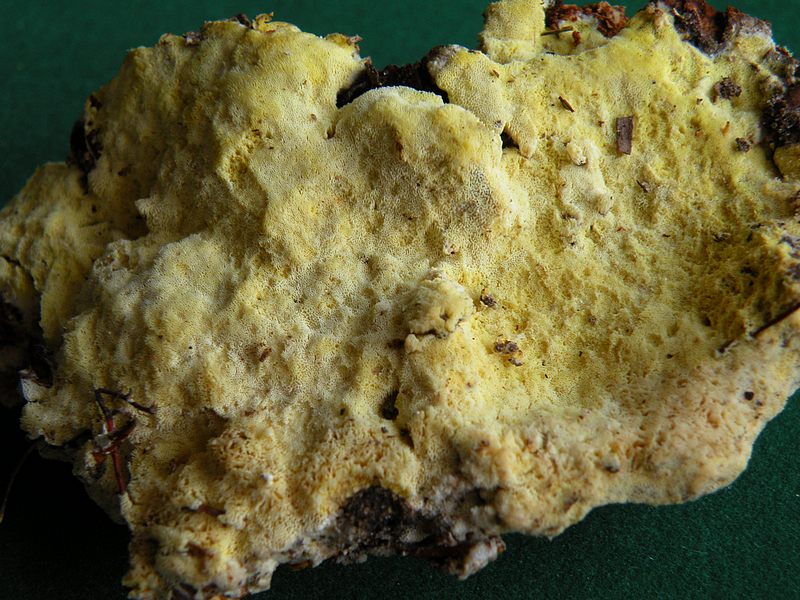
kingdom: Fungi
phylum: Basidiomycota
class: Agaricomycetes
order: Polyporales
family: Fomitopsidaceae
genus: Daedalea
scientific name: Daedalea xantha
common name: gul sejporesvamp
